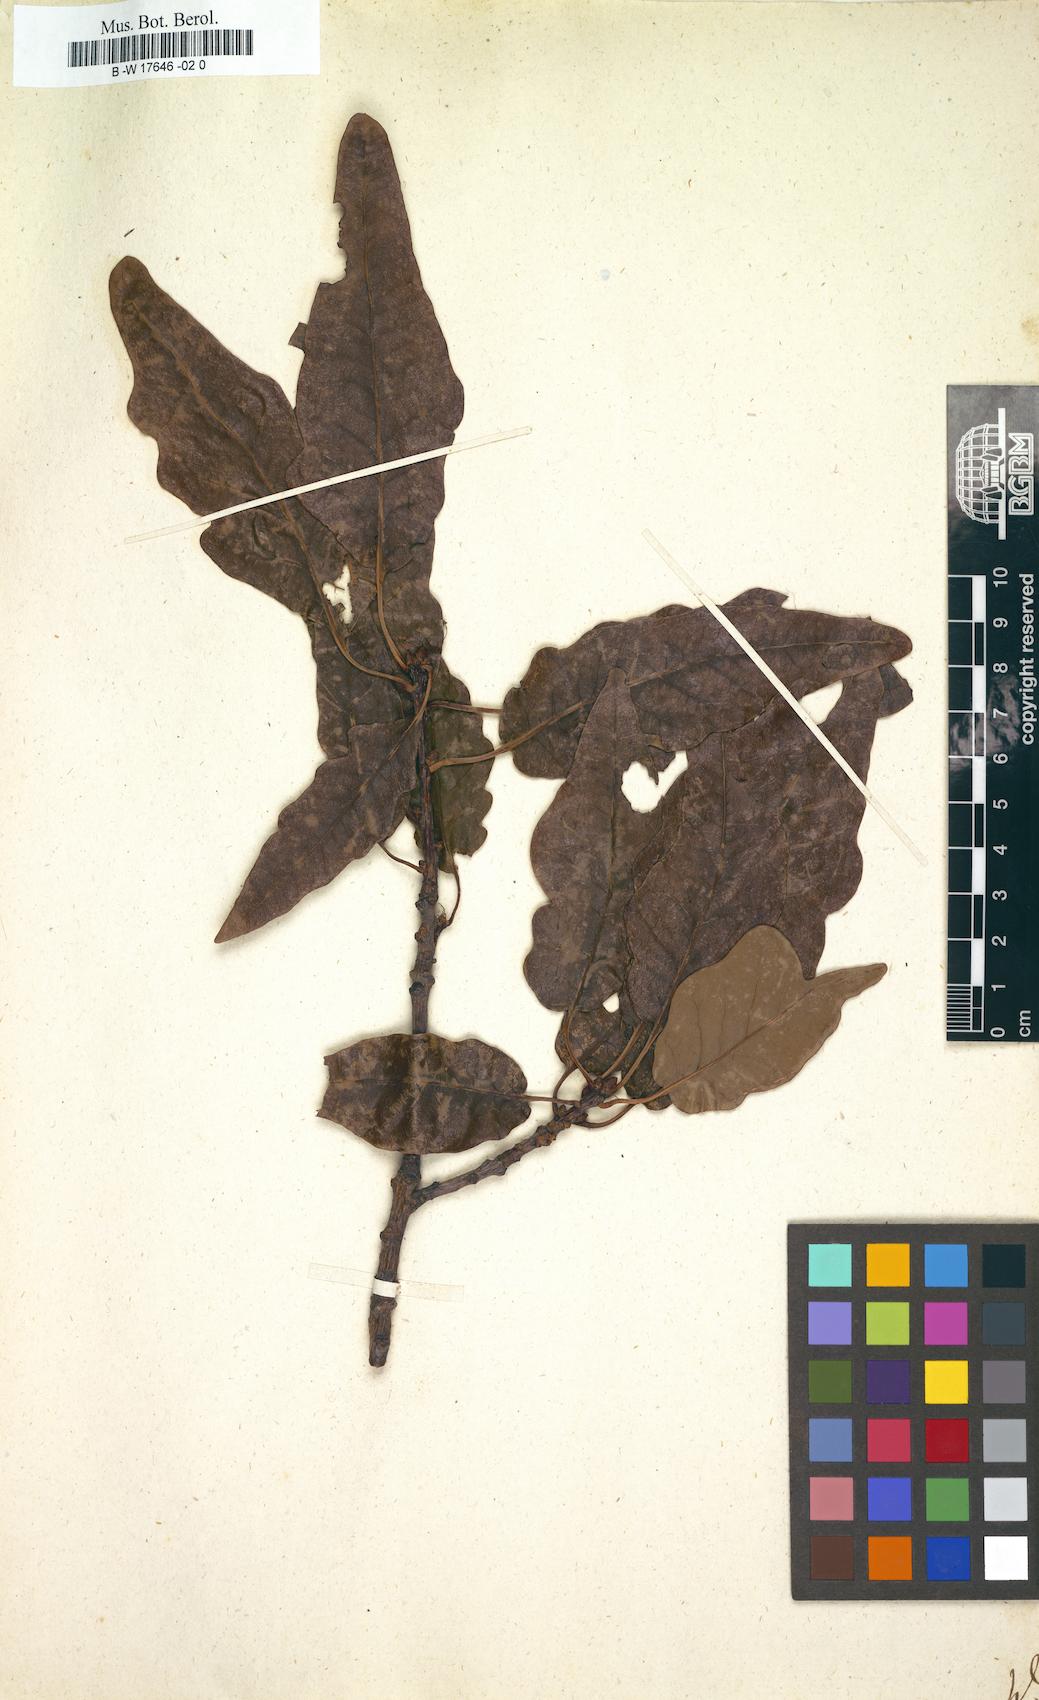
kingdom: Plantae
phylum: Tracheophyta
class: Magnoliopsida
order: Fagales
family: Fagaceae
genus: Quercus
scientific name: Quercus
